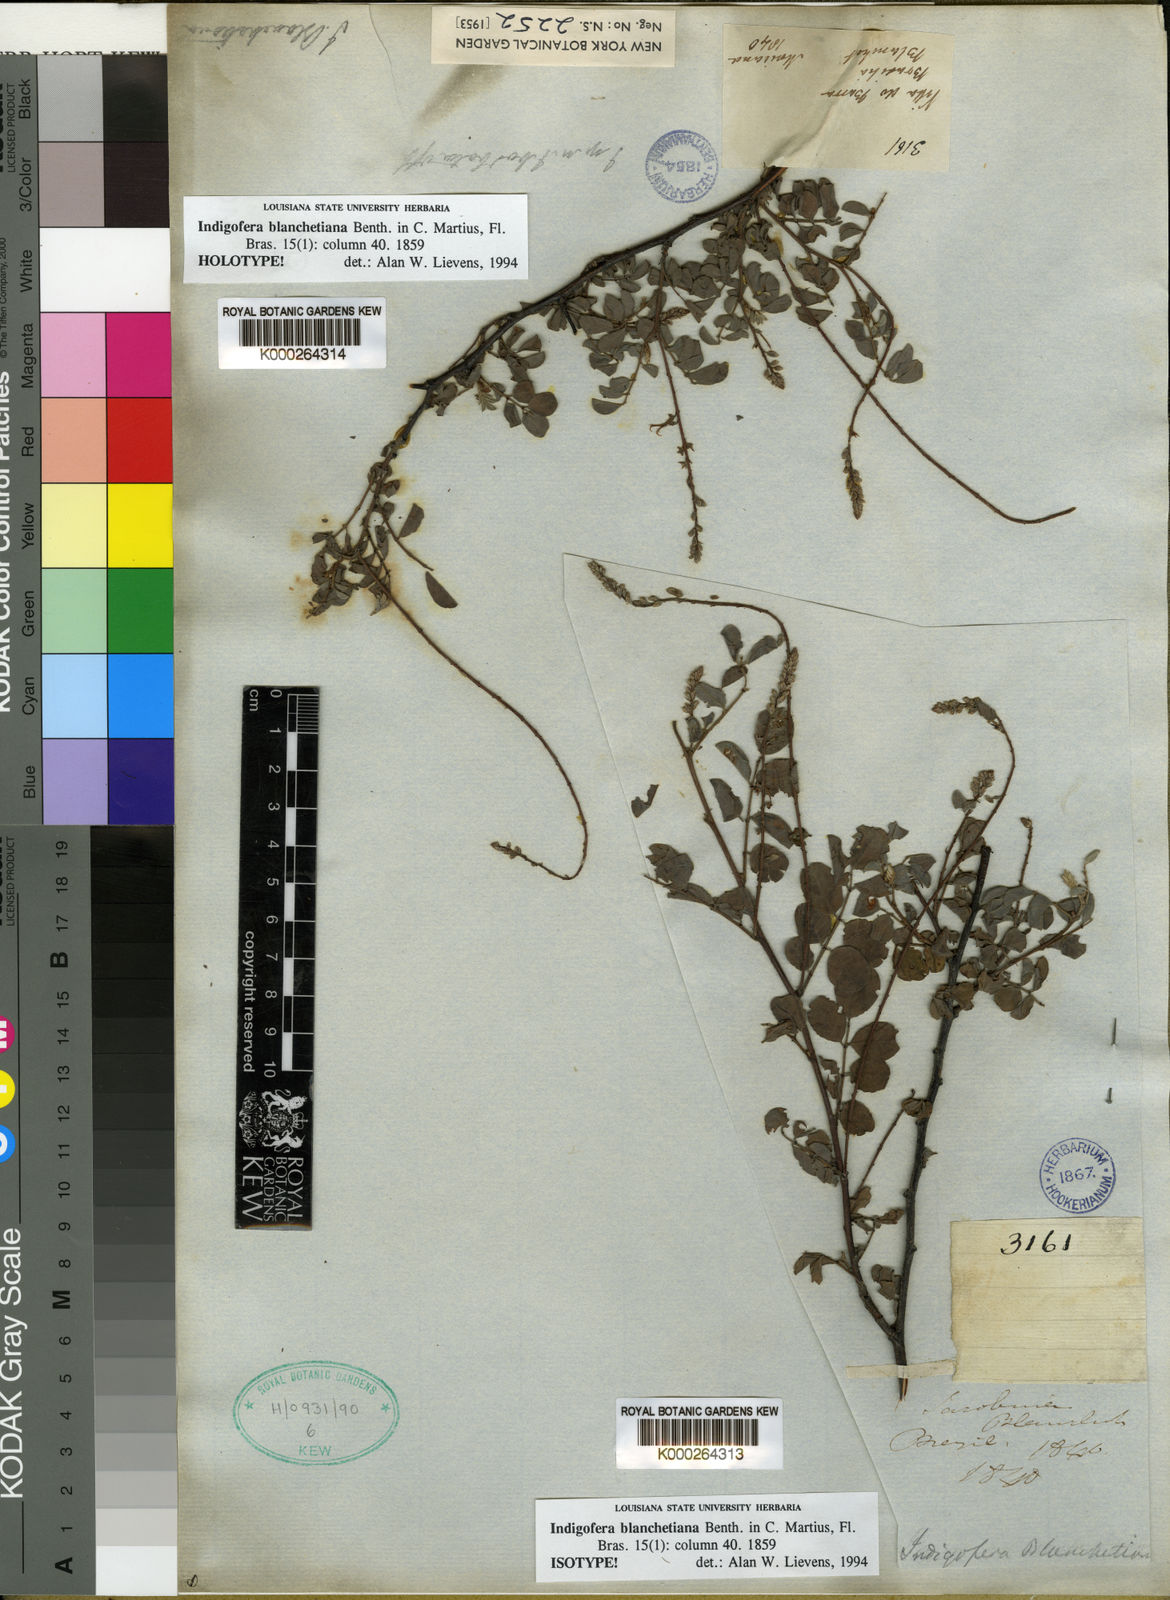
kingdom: Plantae
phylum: Tracheophyta
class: Magnoliopsida
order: Fabales
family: Fabaceae
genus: Indigofera
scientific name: Indigofera blanchetiana
